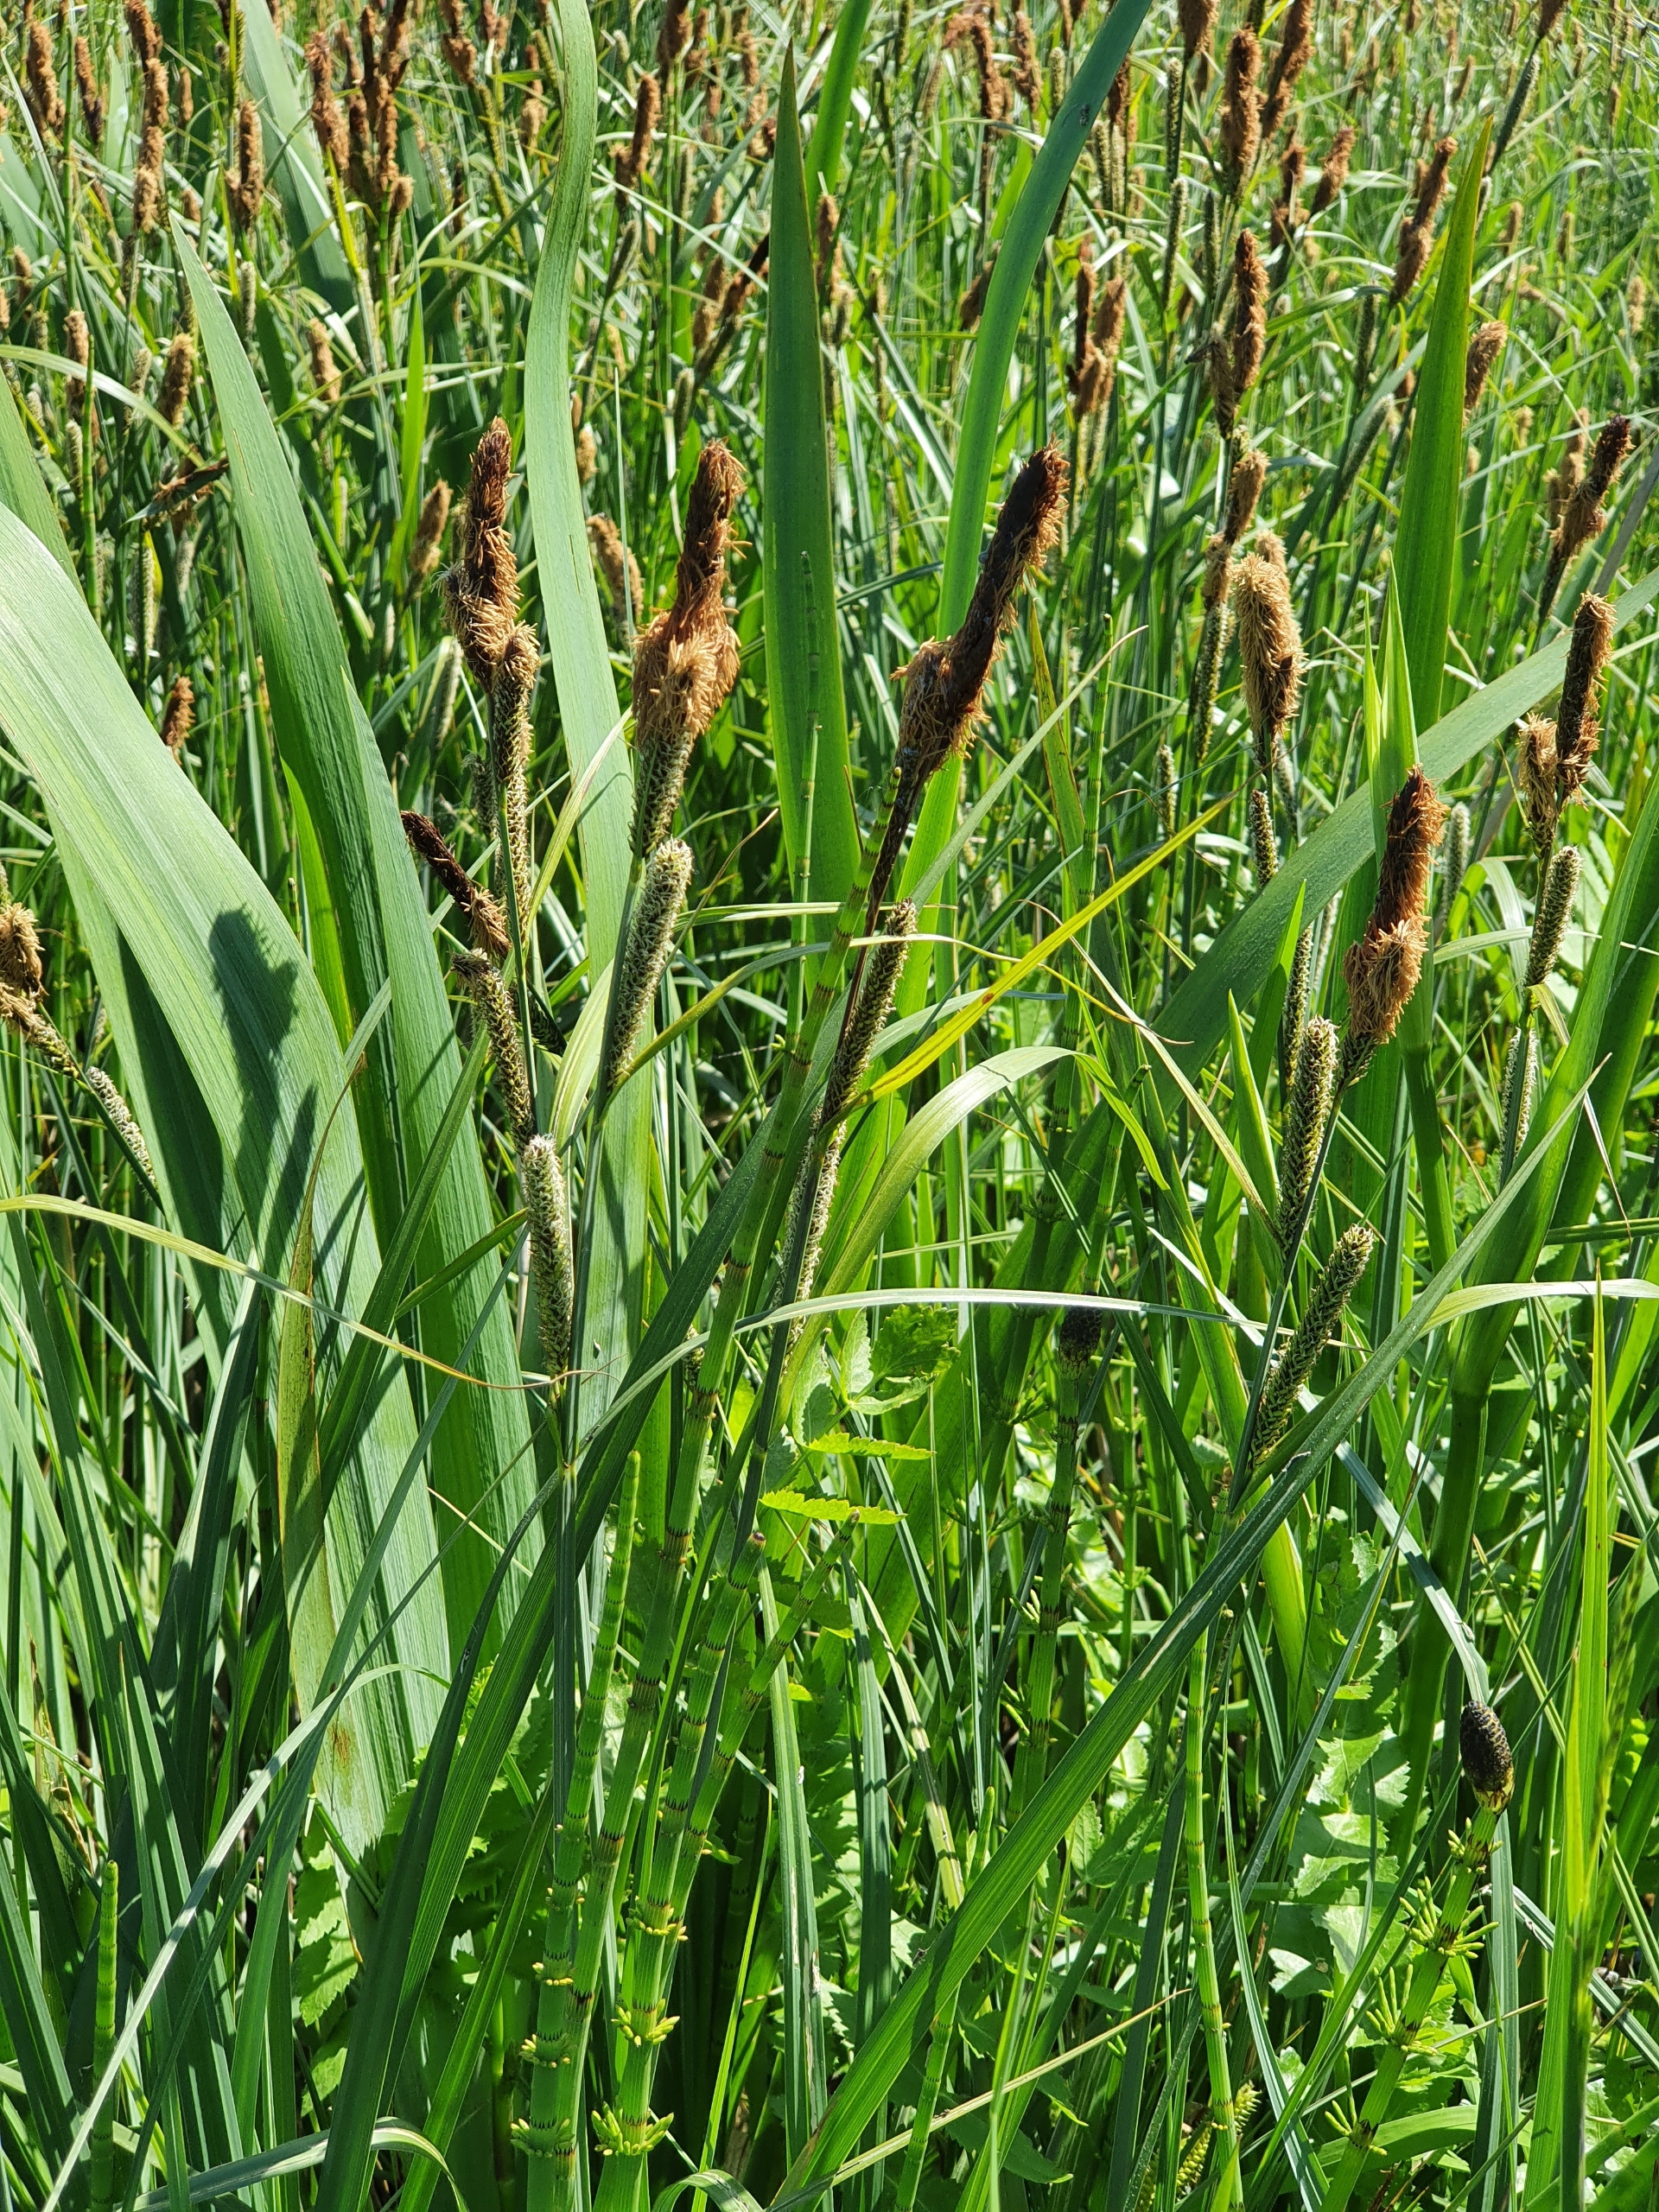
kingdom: Plantae
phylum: Tracheophyta
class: Liliopsida
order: Poales
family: Cyperaceae
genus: Carex
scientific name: Carex acutiformis
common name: Kær-star
